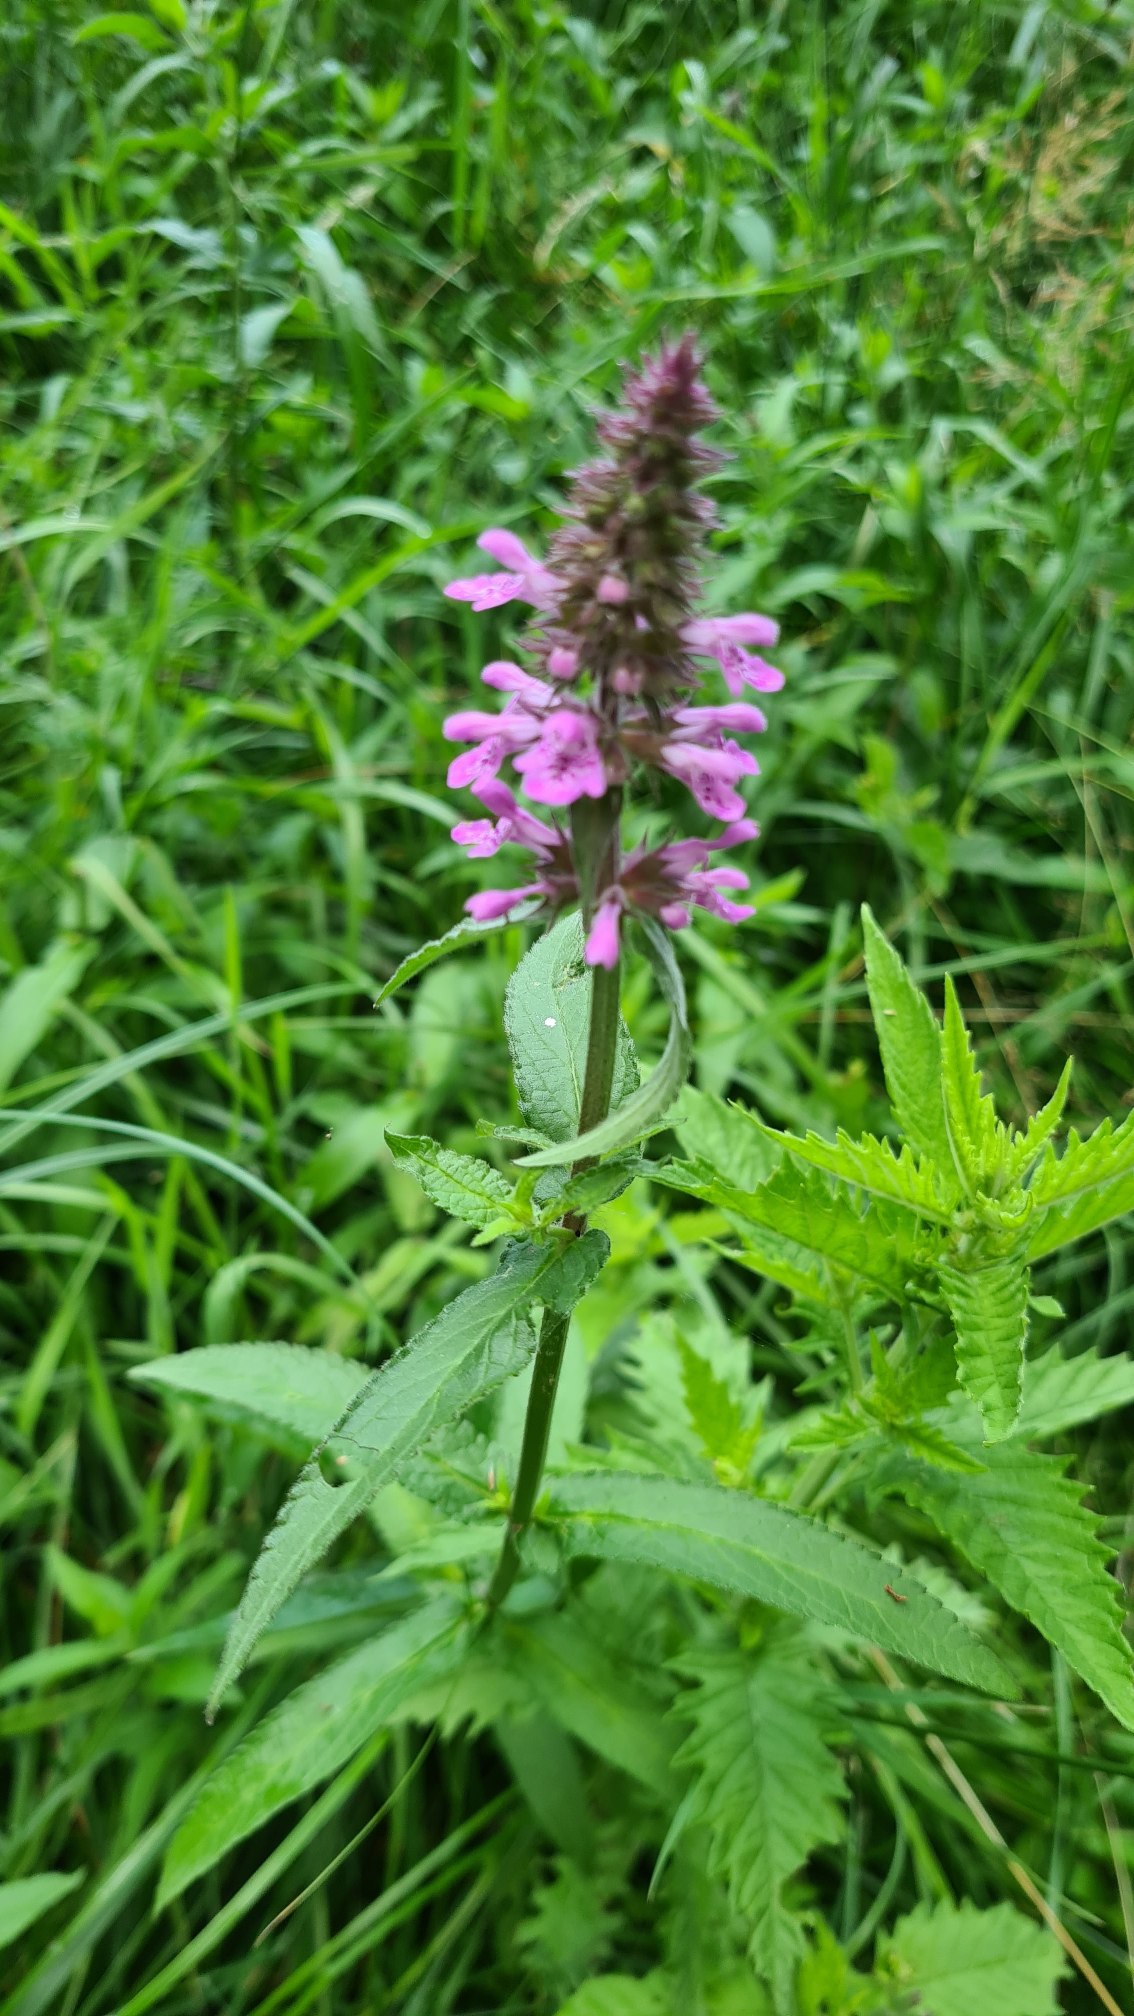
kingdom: Plantae
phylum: Tracheophyta
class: Magnoliopsida
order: Lamiales
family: Lamiaceae
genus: Stachys
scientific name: Stachys palustris
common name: Kær-galtetand
